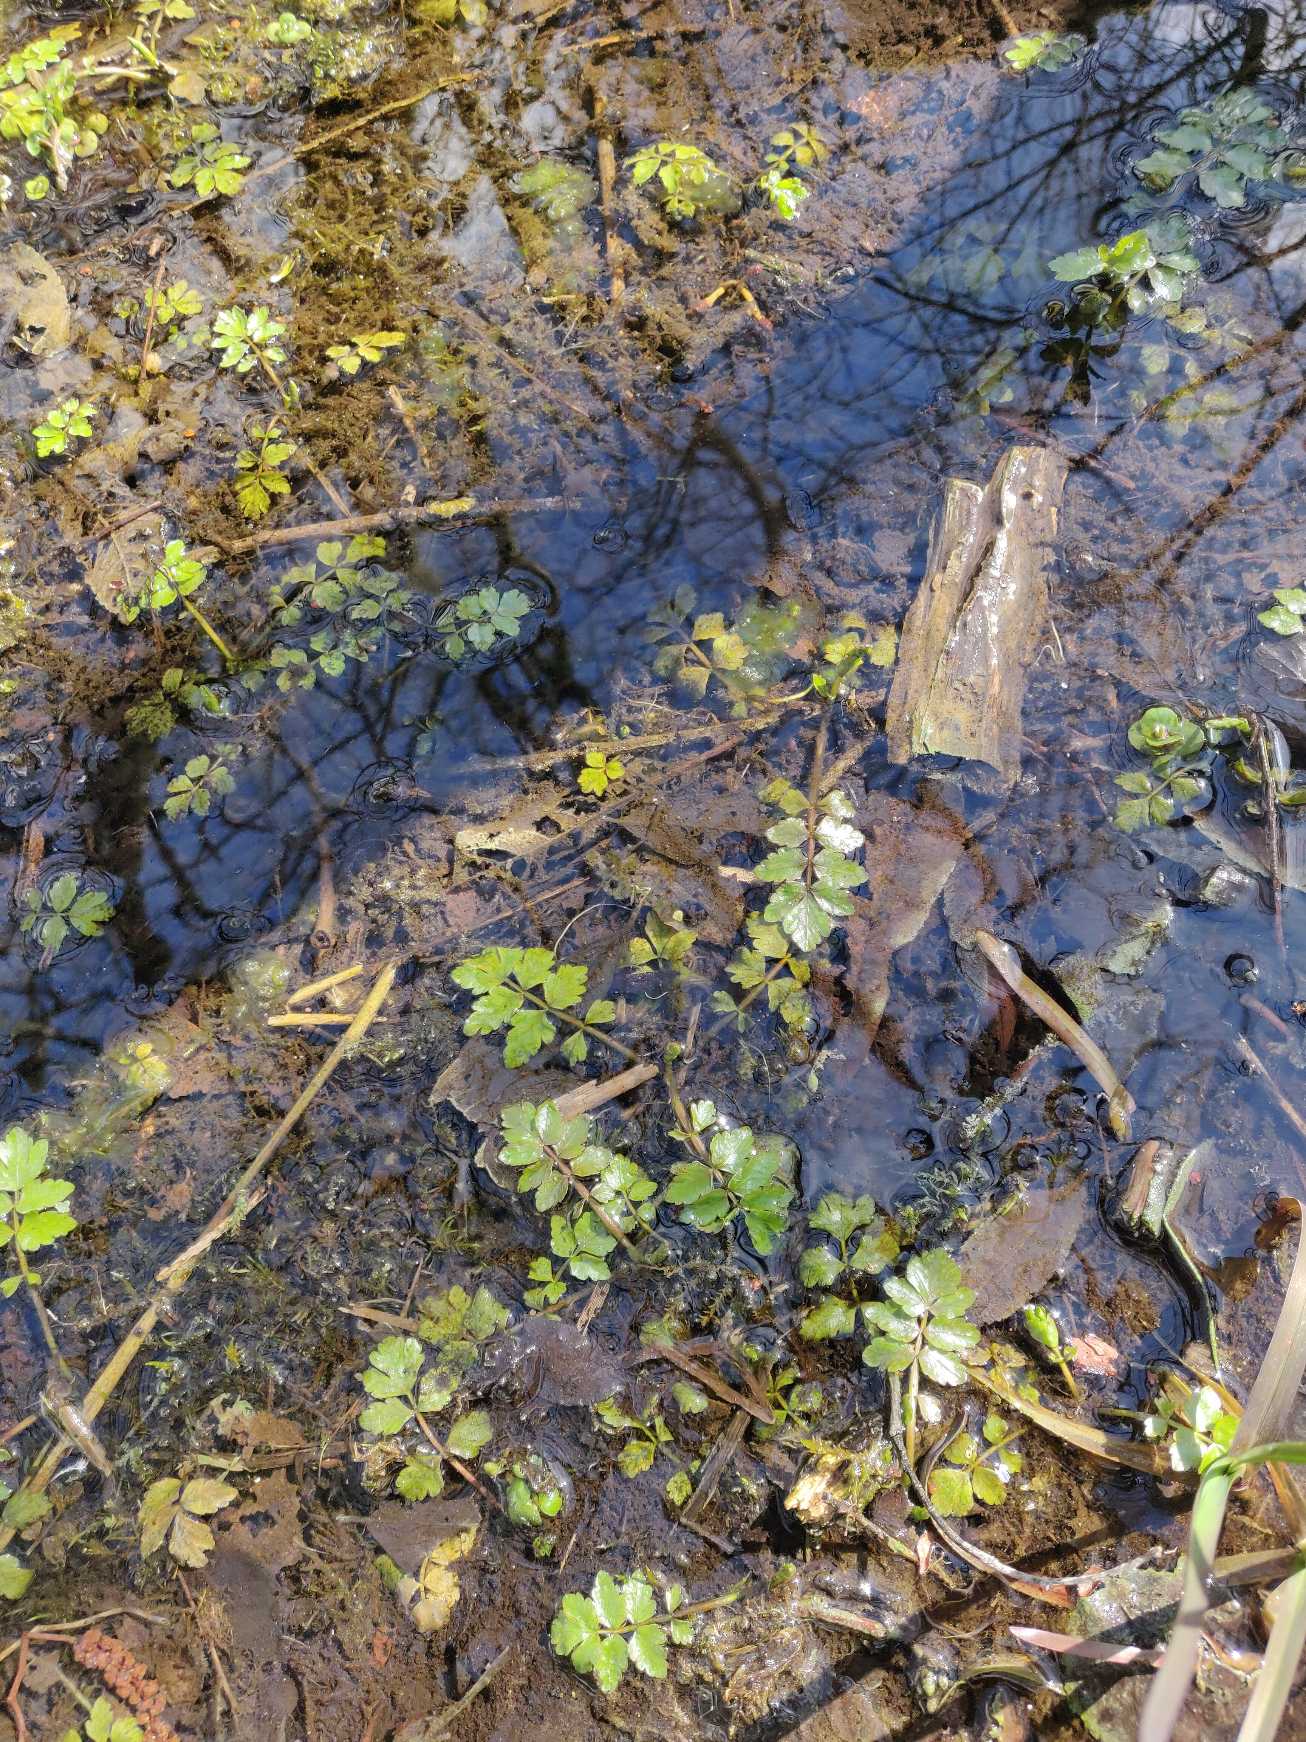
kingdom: Plantae
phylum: Tracheophyta
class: Magnoliopsida
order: Apiales
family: Apiaceae
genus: Berula
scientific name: Berula erecta
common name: Sideskærm
